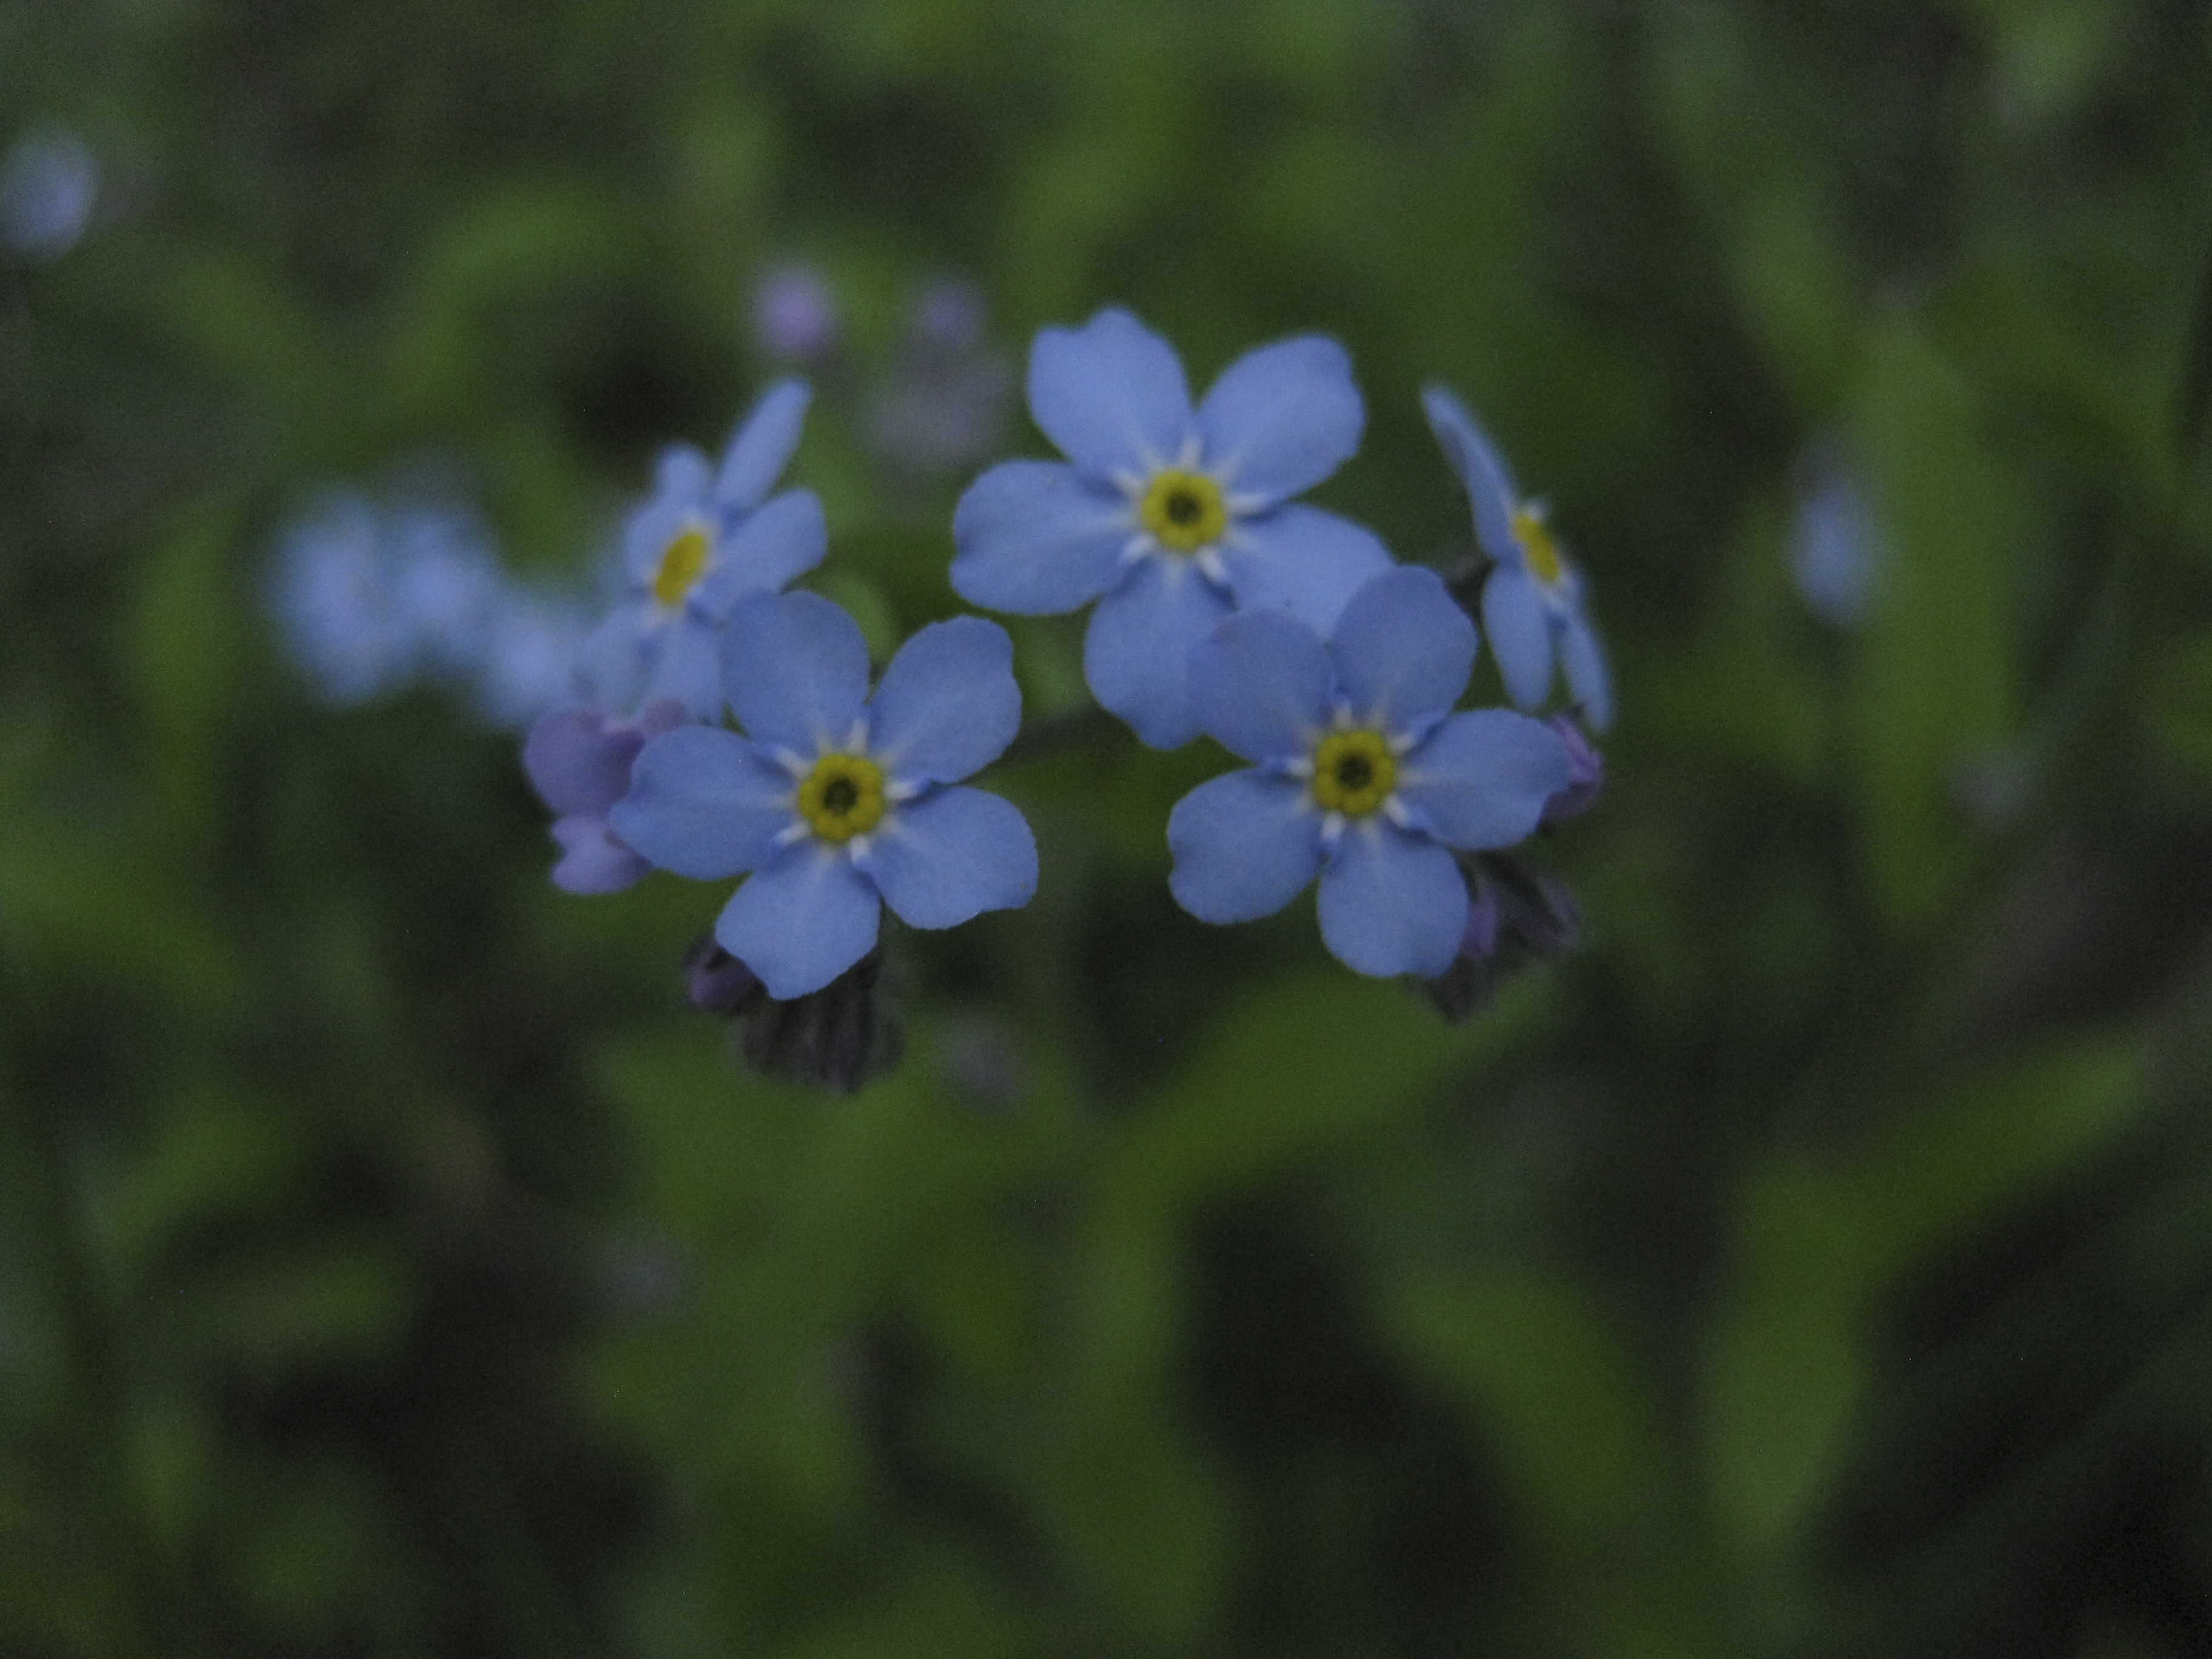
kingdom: Plantae
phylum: Tracheophyta
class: Magnoliopsida
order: Boraginales
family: Boraginaceae
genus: Myosotis
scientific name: Myosotis sylvatica
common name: Wood forget-me-not
